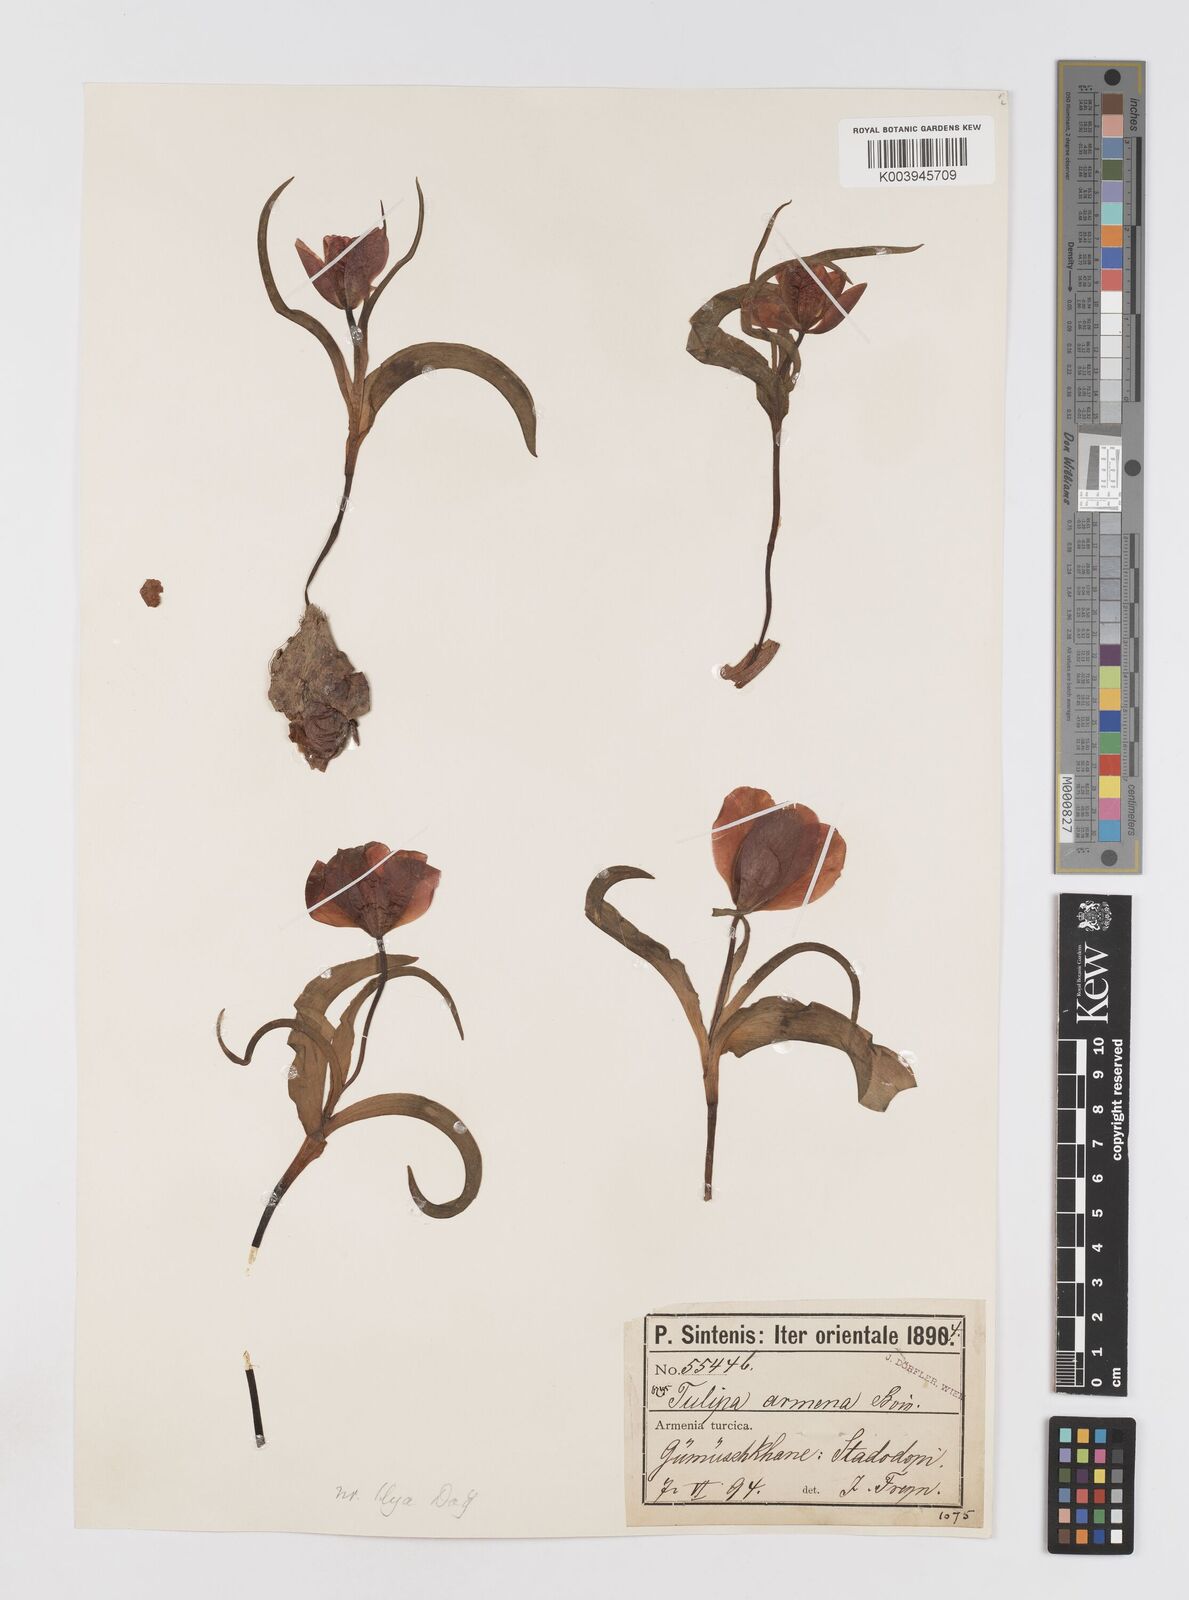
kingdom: Plantae
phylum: Tracheophyta
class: Liliopsida
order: Liliales
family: Liliaceae
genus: Tulipa
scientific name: Tulipa armena
